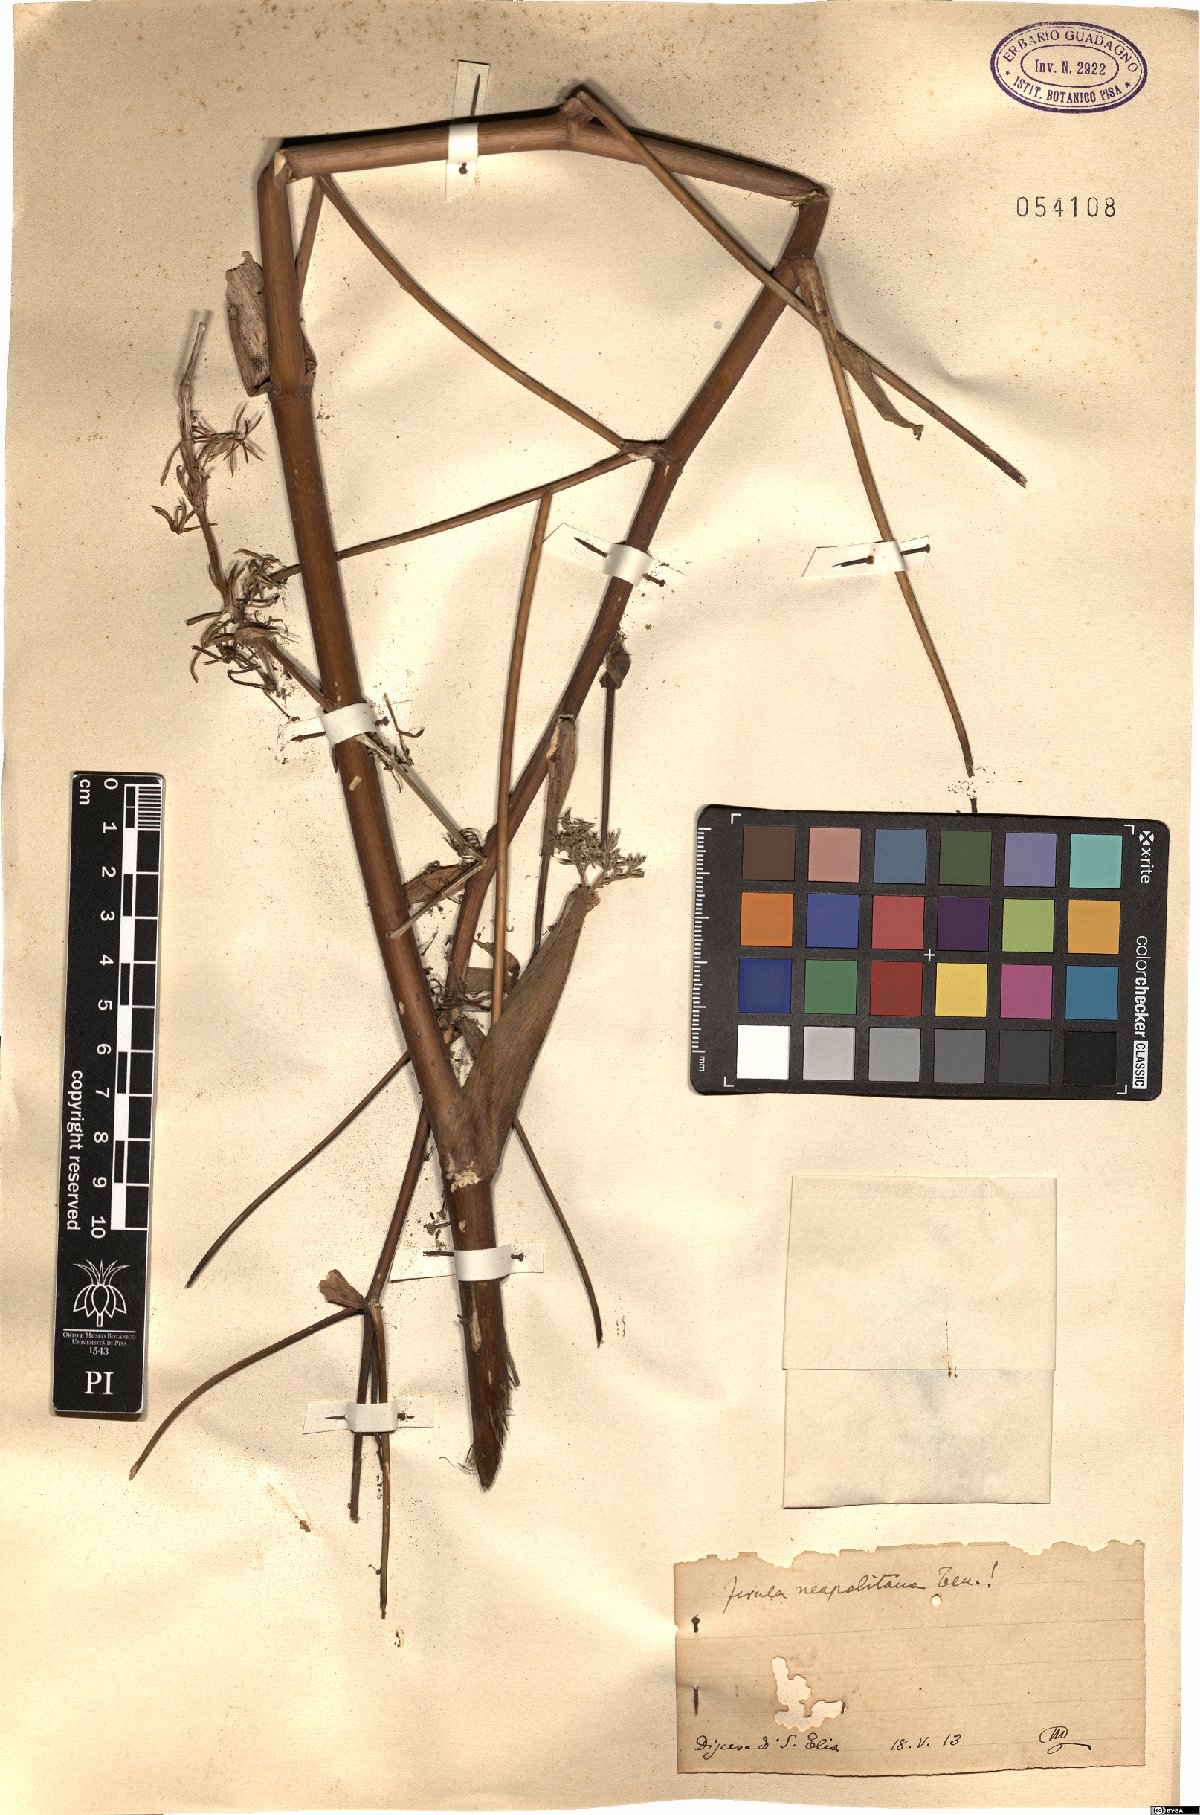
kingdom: Plantae
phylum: Tracheophyta
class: Magnoliopsida
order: Apiales
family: Apiaceae
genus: Ferula
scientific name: Ferula glauca
